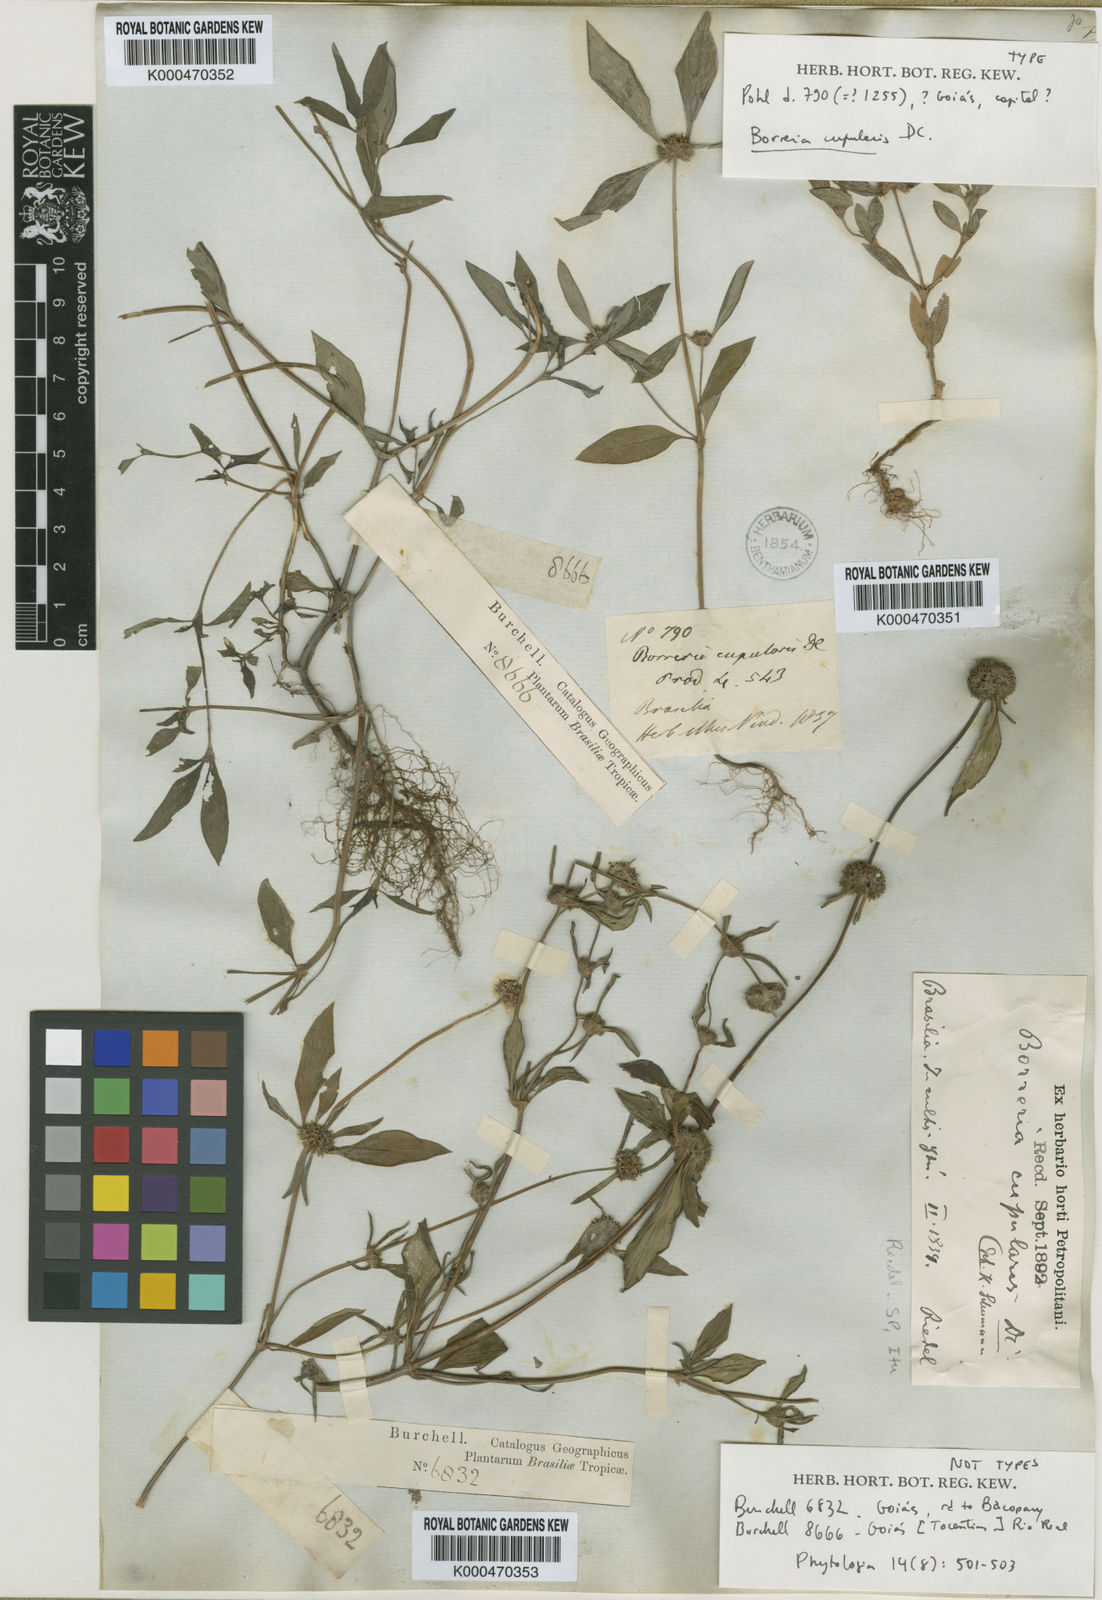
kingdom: Plantae
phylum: Tracheophyta
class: Magnoliopsida
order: Gentianales
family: Rubiaceae
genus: Spermacoce
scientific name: Spermacoce cupularis
